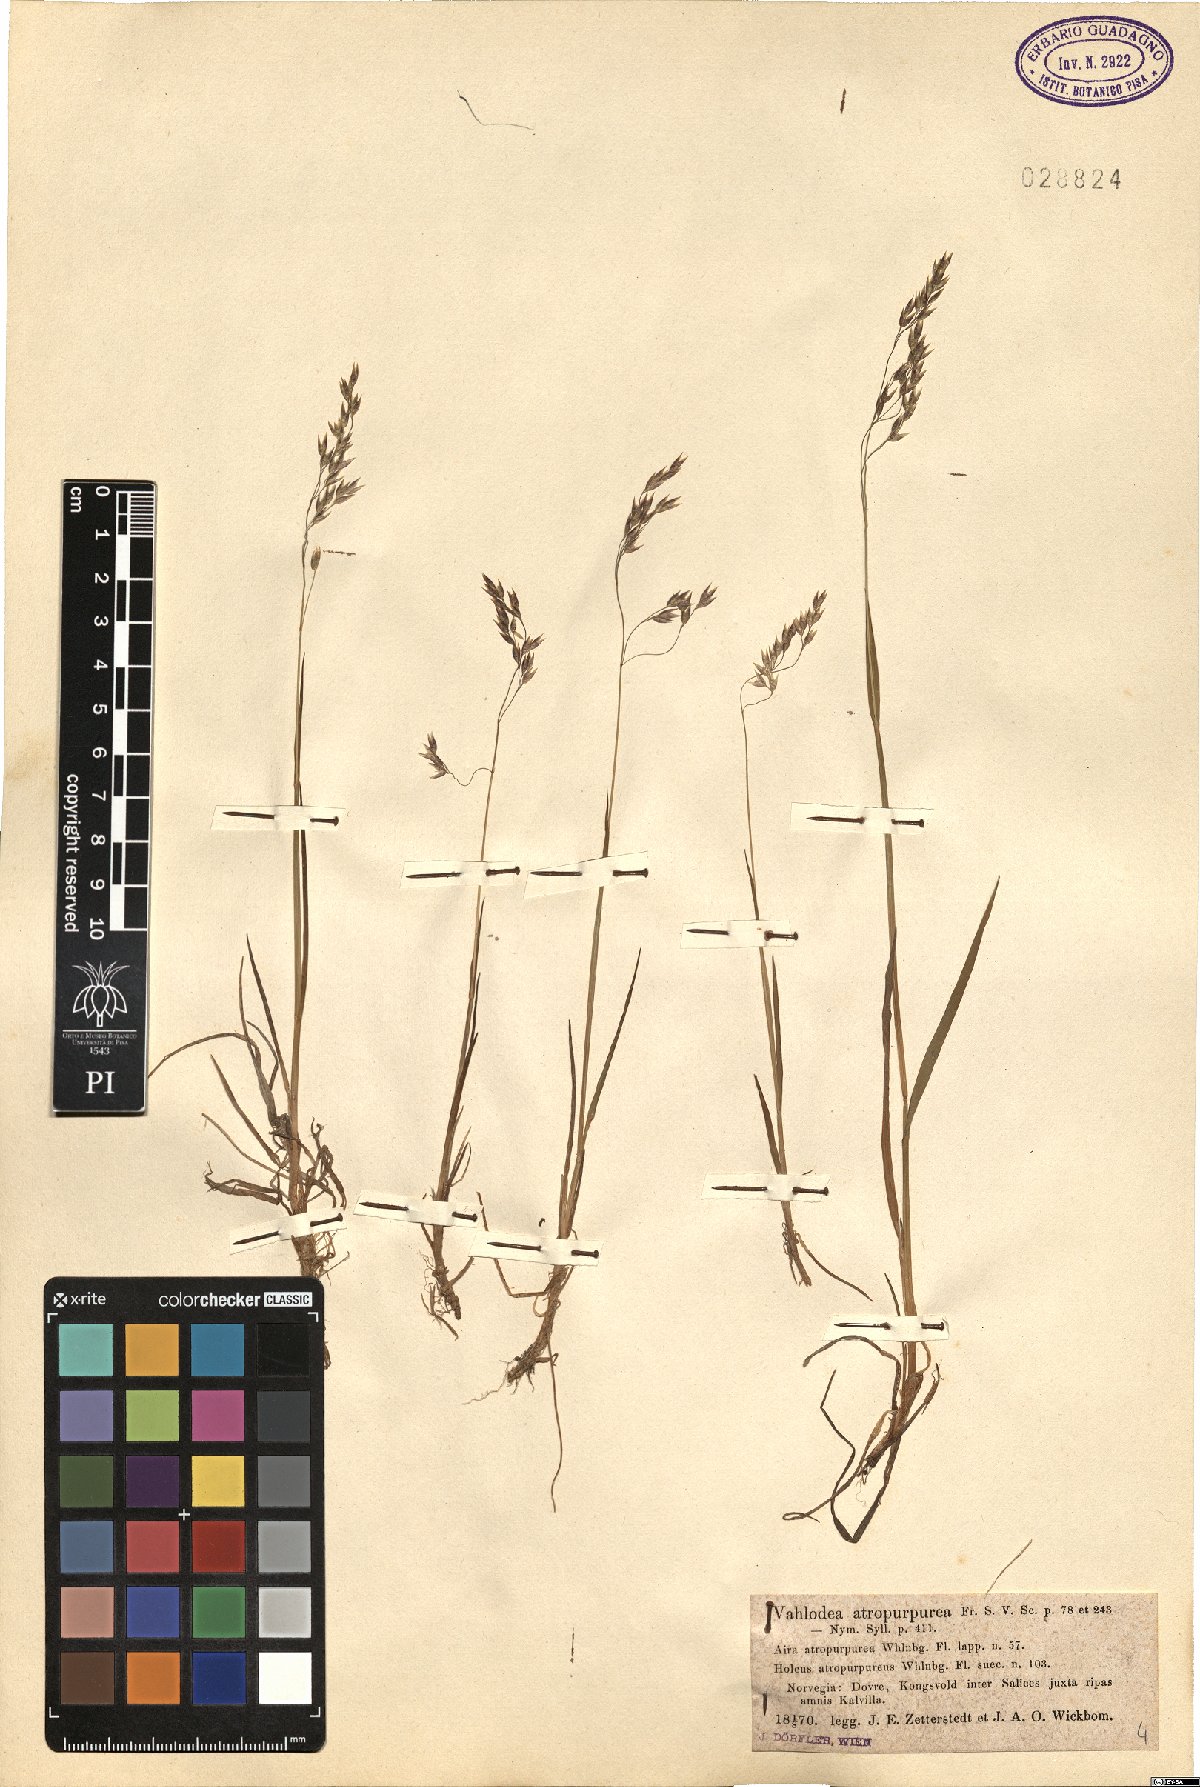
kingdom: Plantae
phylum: Tracheophyta
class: Liliopsida
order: Poales
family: Poaceae
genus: Vahlodea
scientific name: Vahlodea atropurpurea
